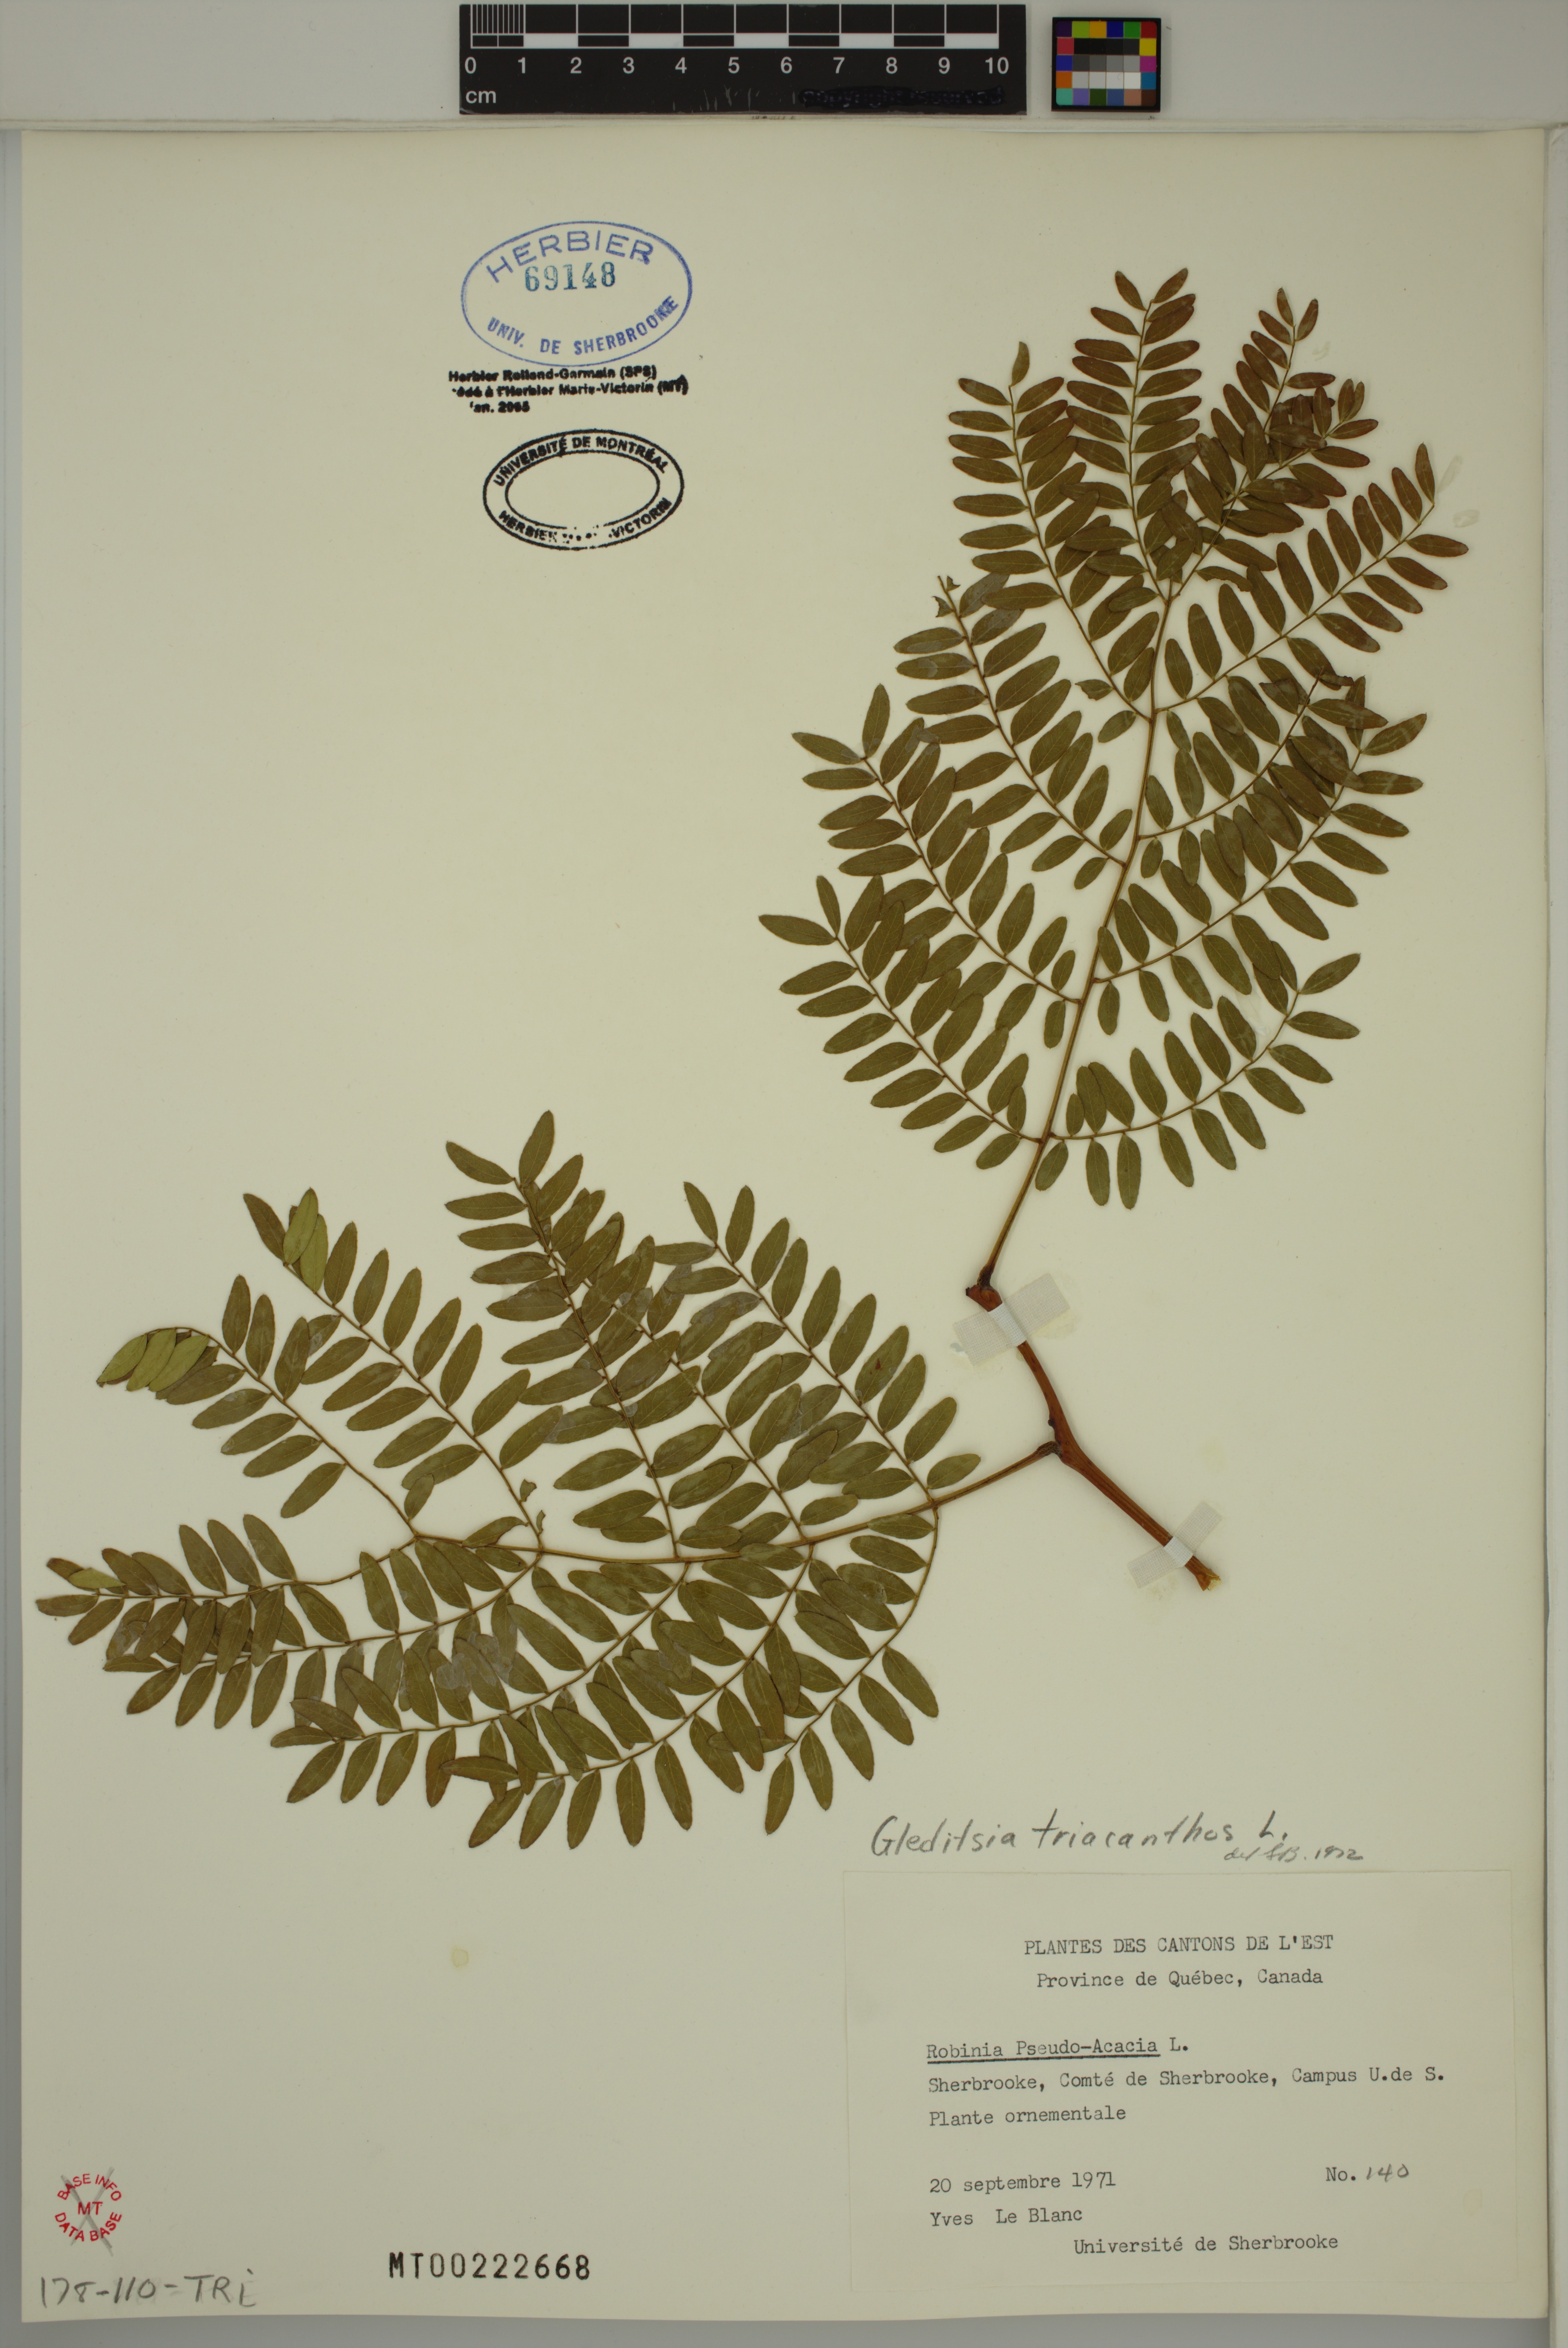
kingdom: Plantae
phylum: Tracheophyta
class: Magnoliopsida
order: Fabales
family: Fabaceae
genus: Gleditsia
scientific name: Gleditsia triacanthos
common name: Common honeylocust
